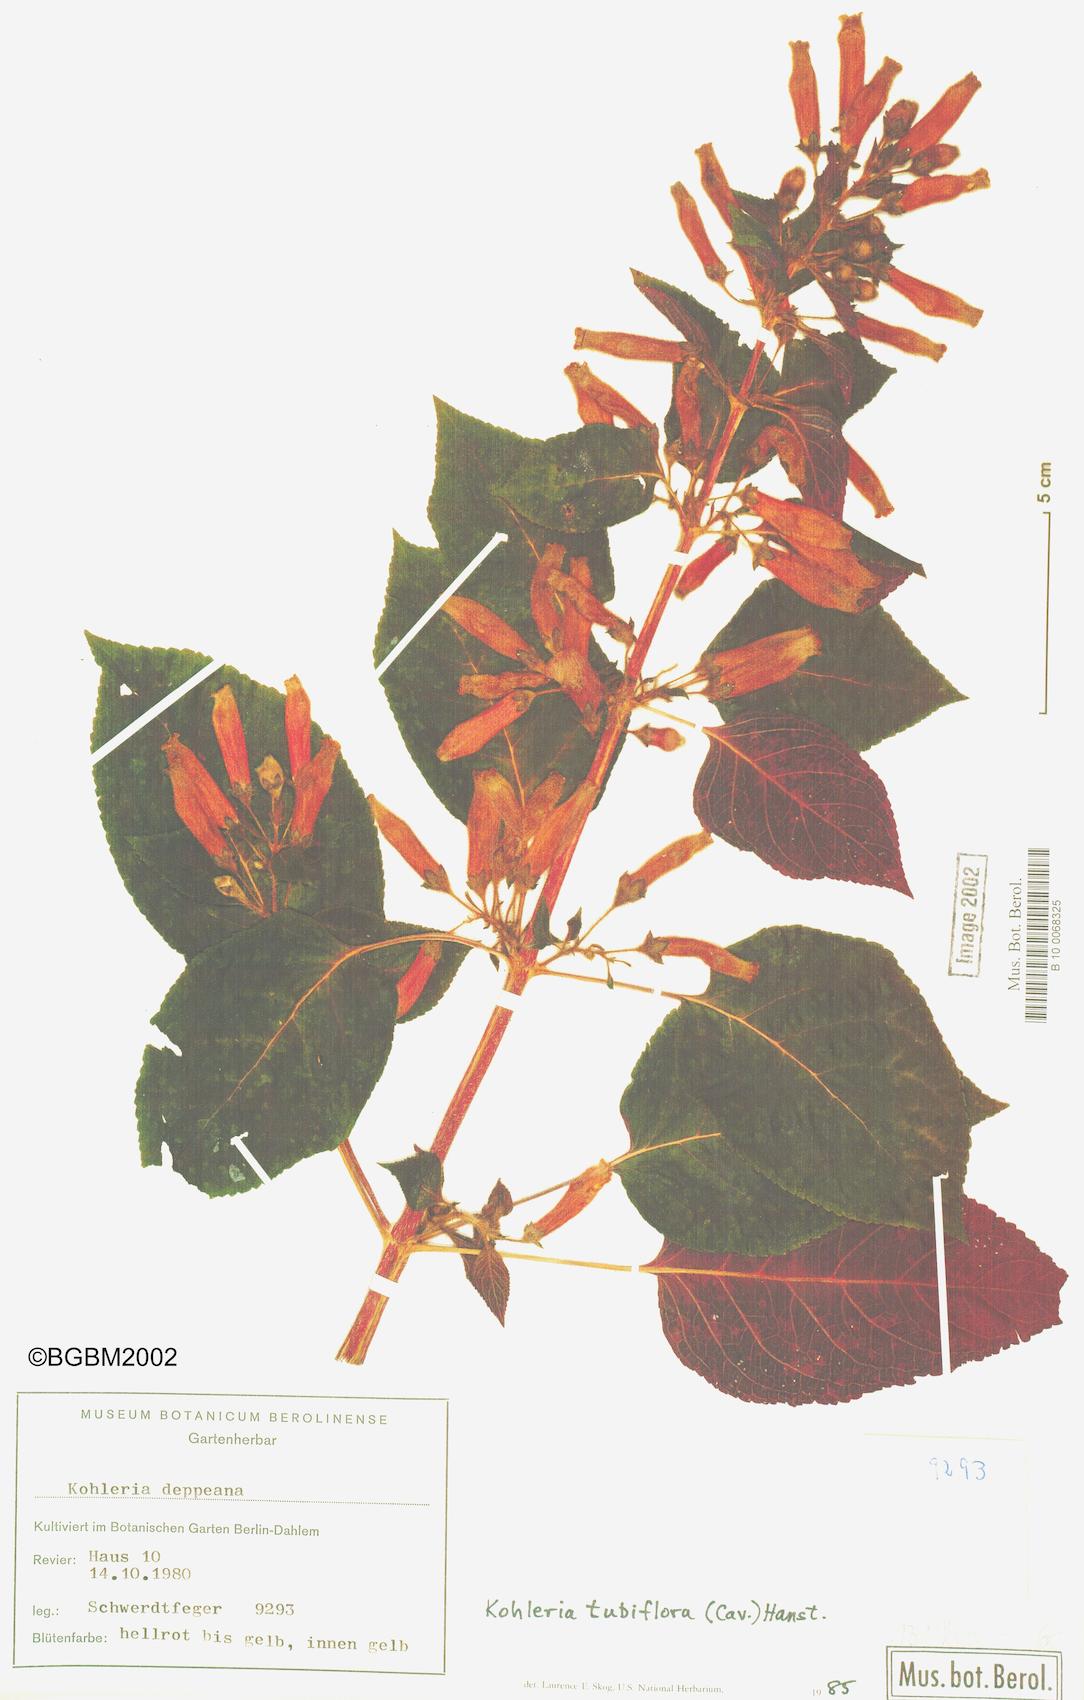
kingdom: Plantae
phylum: Tracheophyta
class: Magnoliopsida
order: Lamiales
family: Gesneriaceae
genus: Kohleria
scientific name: Kohleria tubiflora
